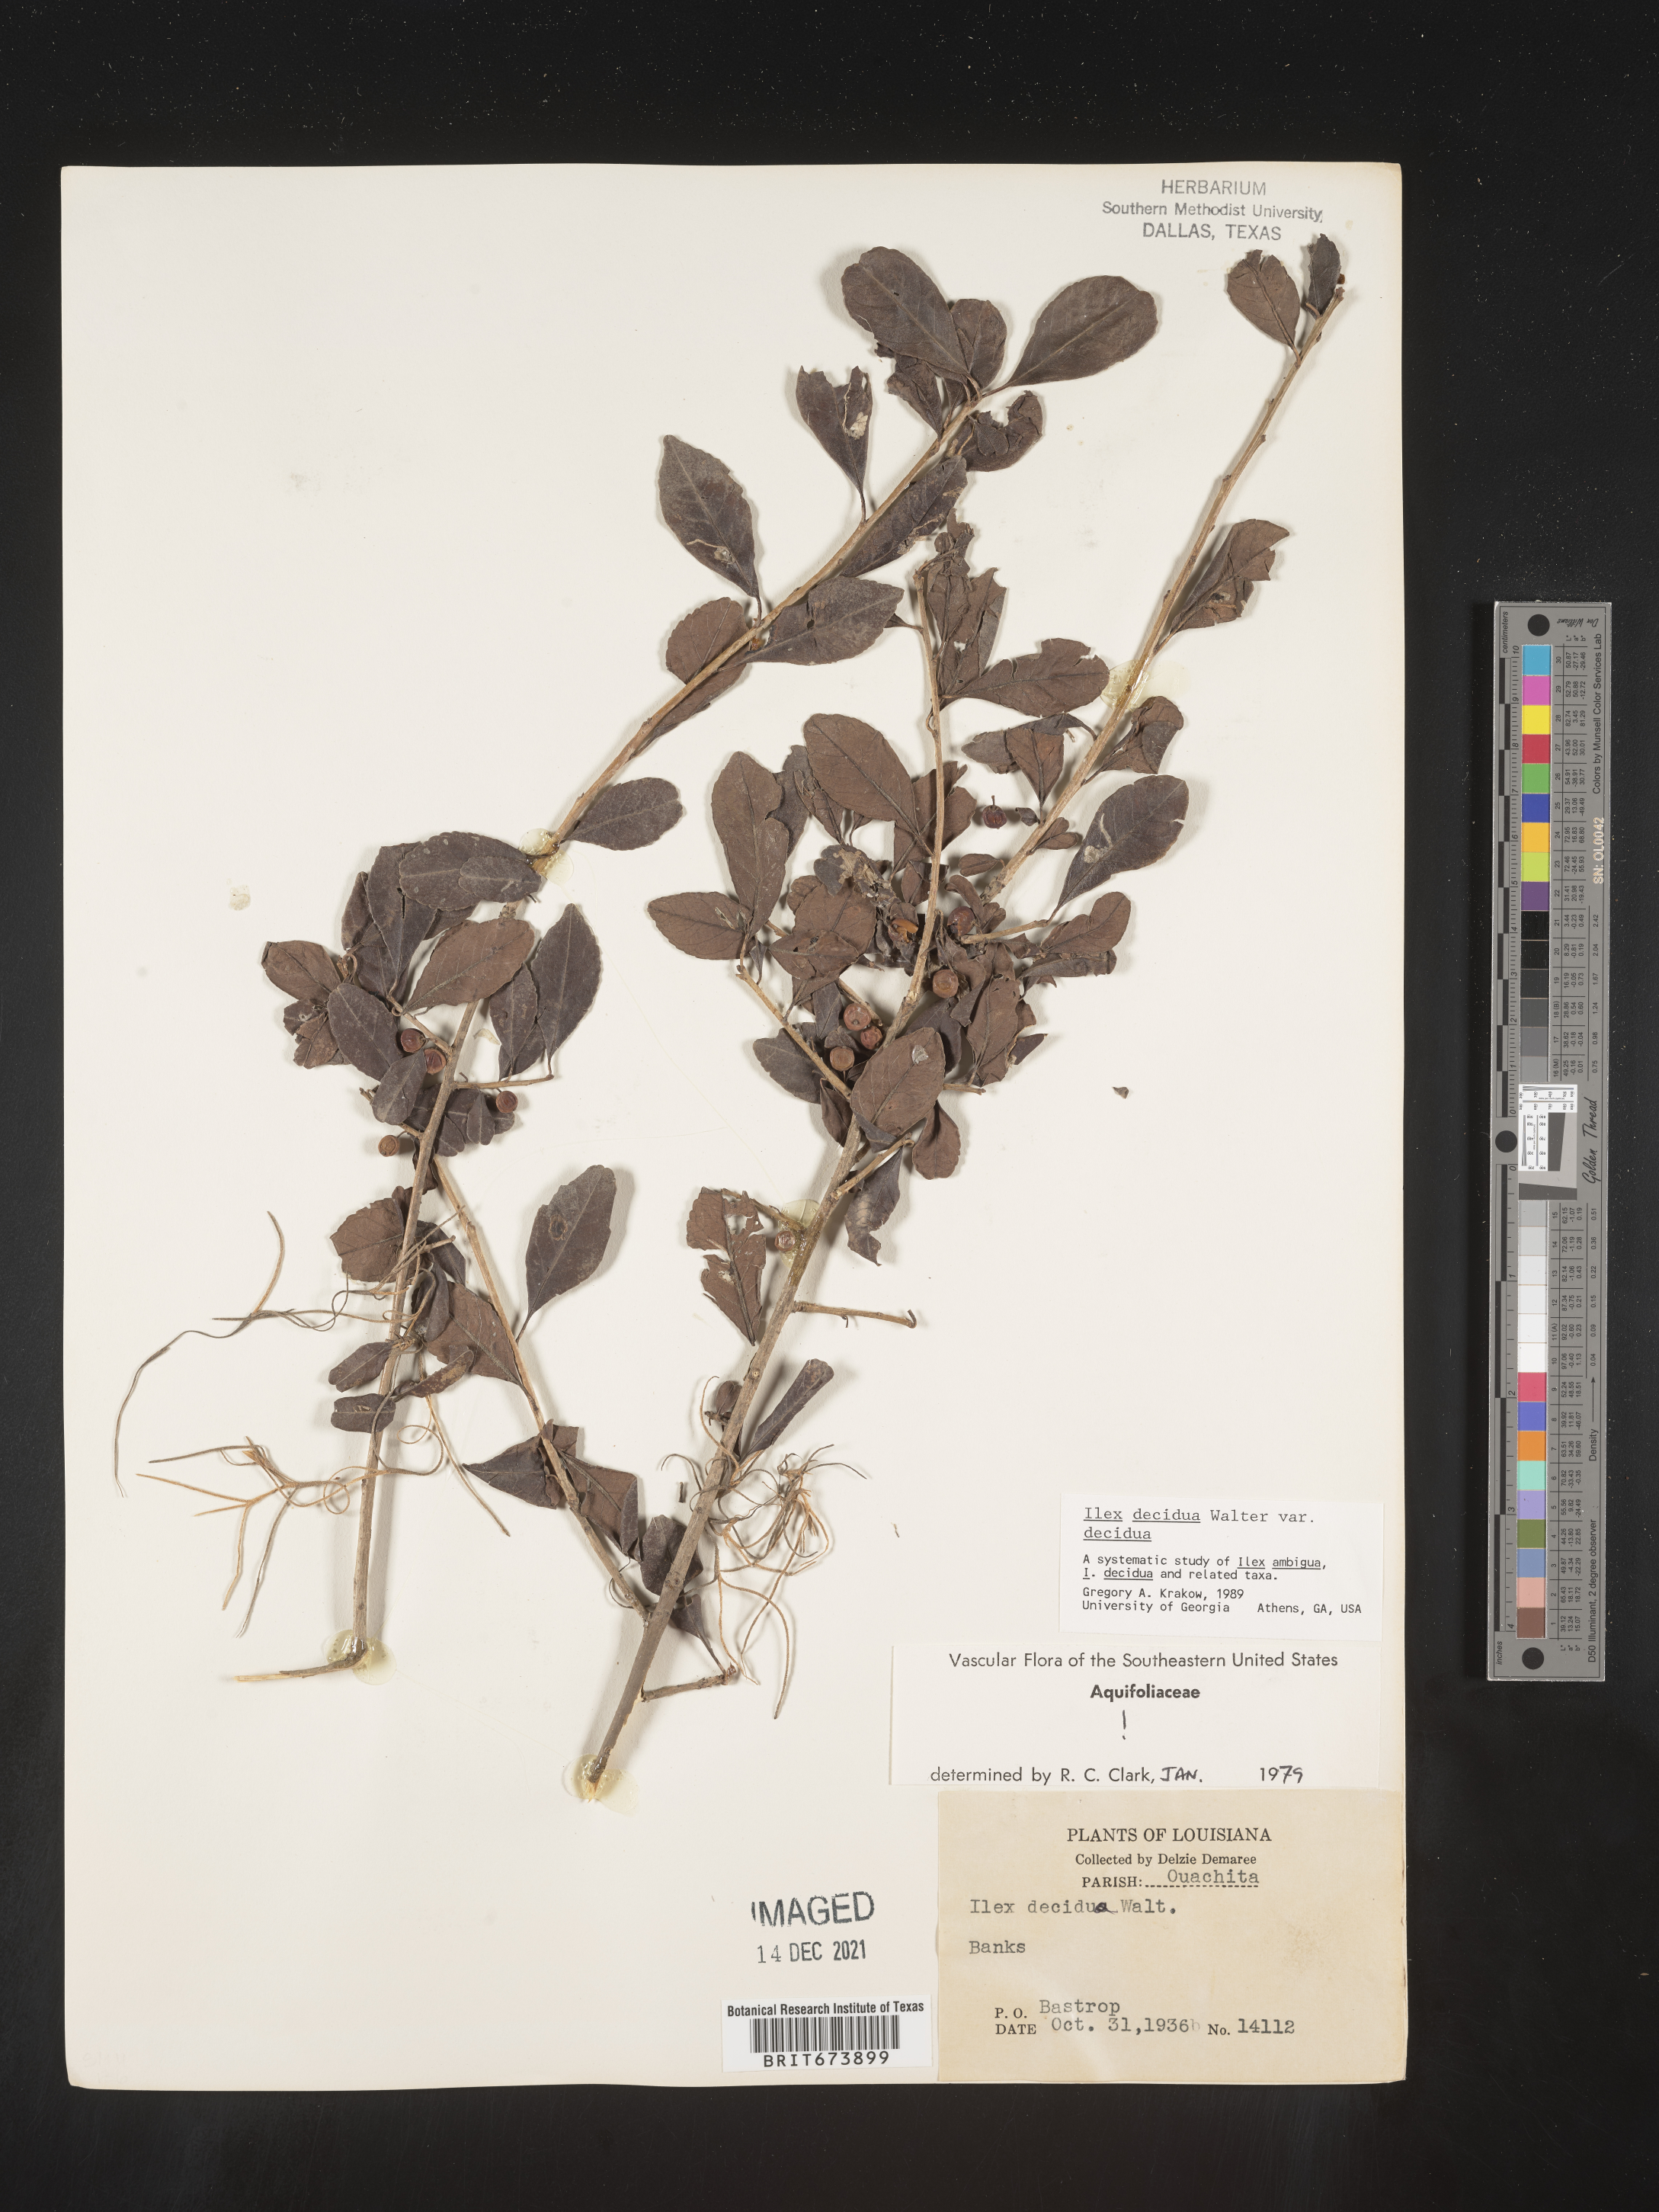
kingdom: Plantae
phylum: Tracheophyta
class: Magnoliopsida
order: Aquifoliales
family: Aquifoliaceae
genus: Ilex
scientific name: Ilex decidua
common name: Possum-haw
